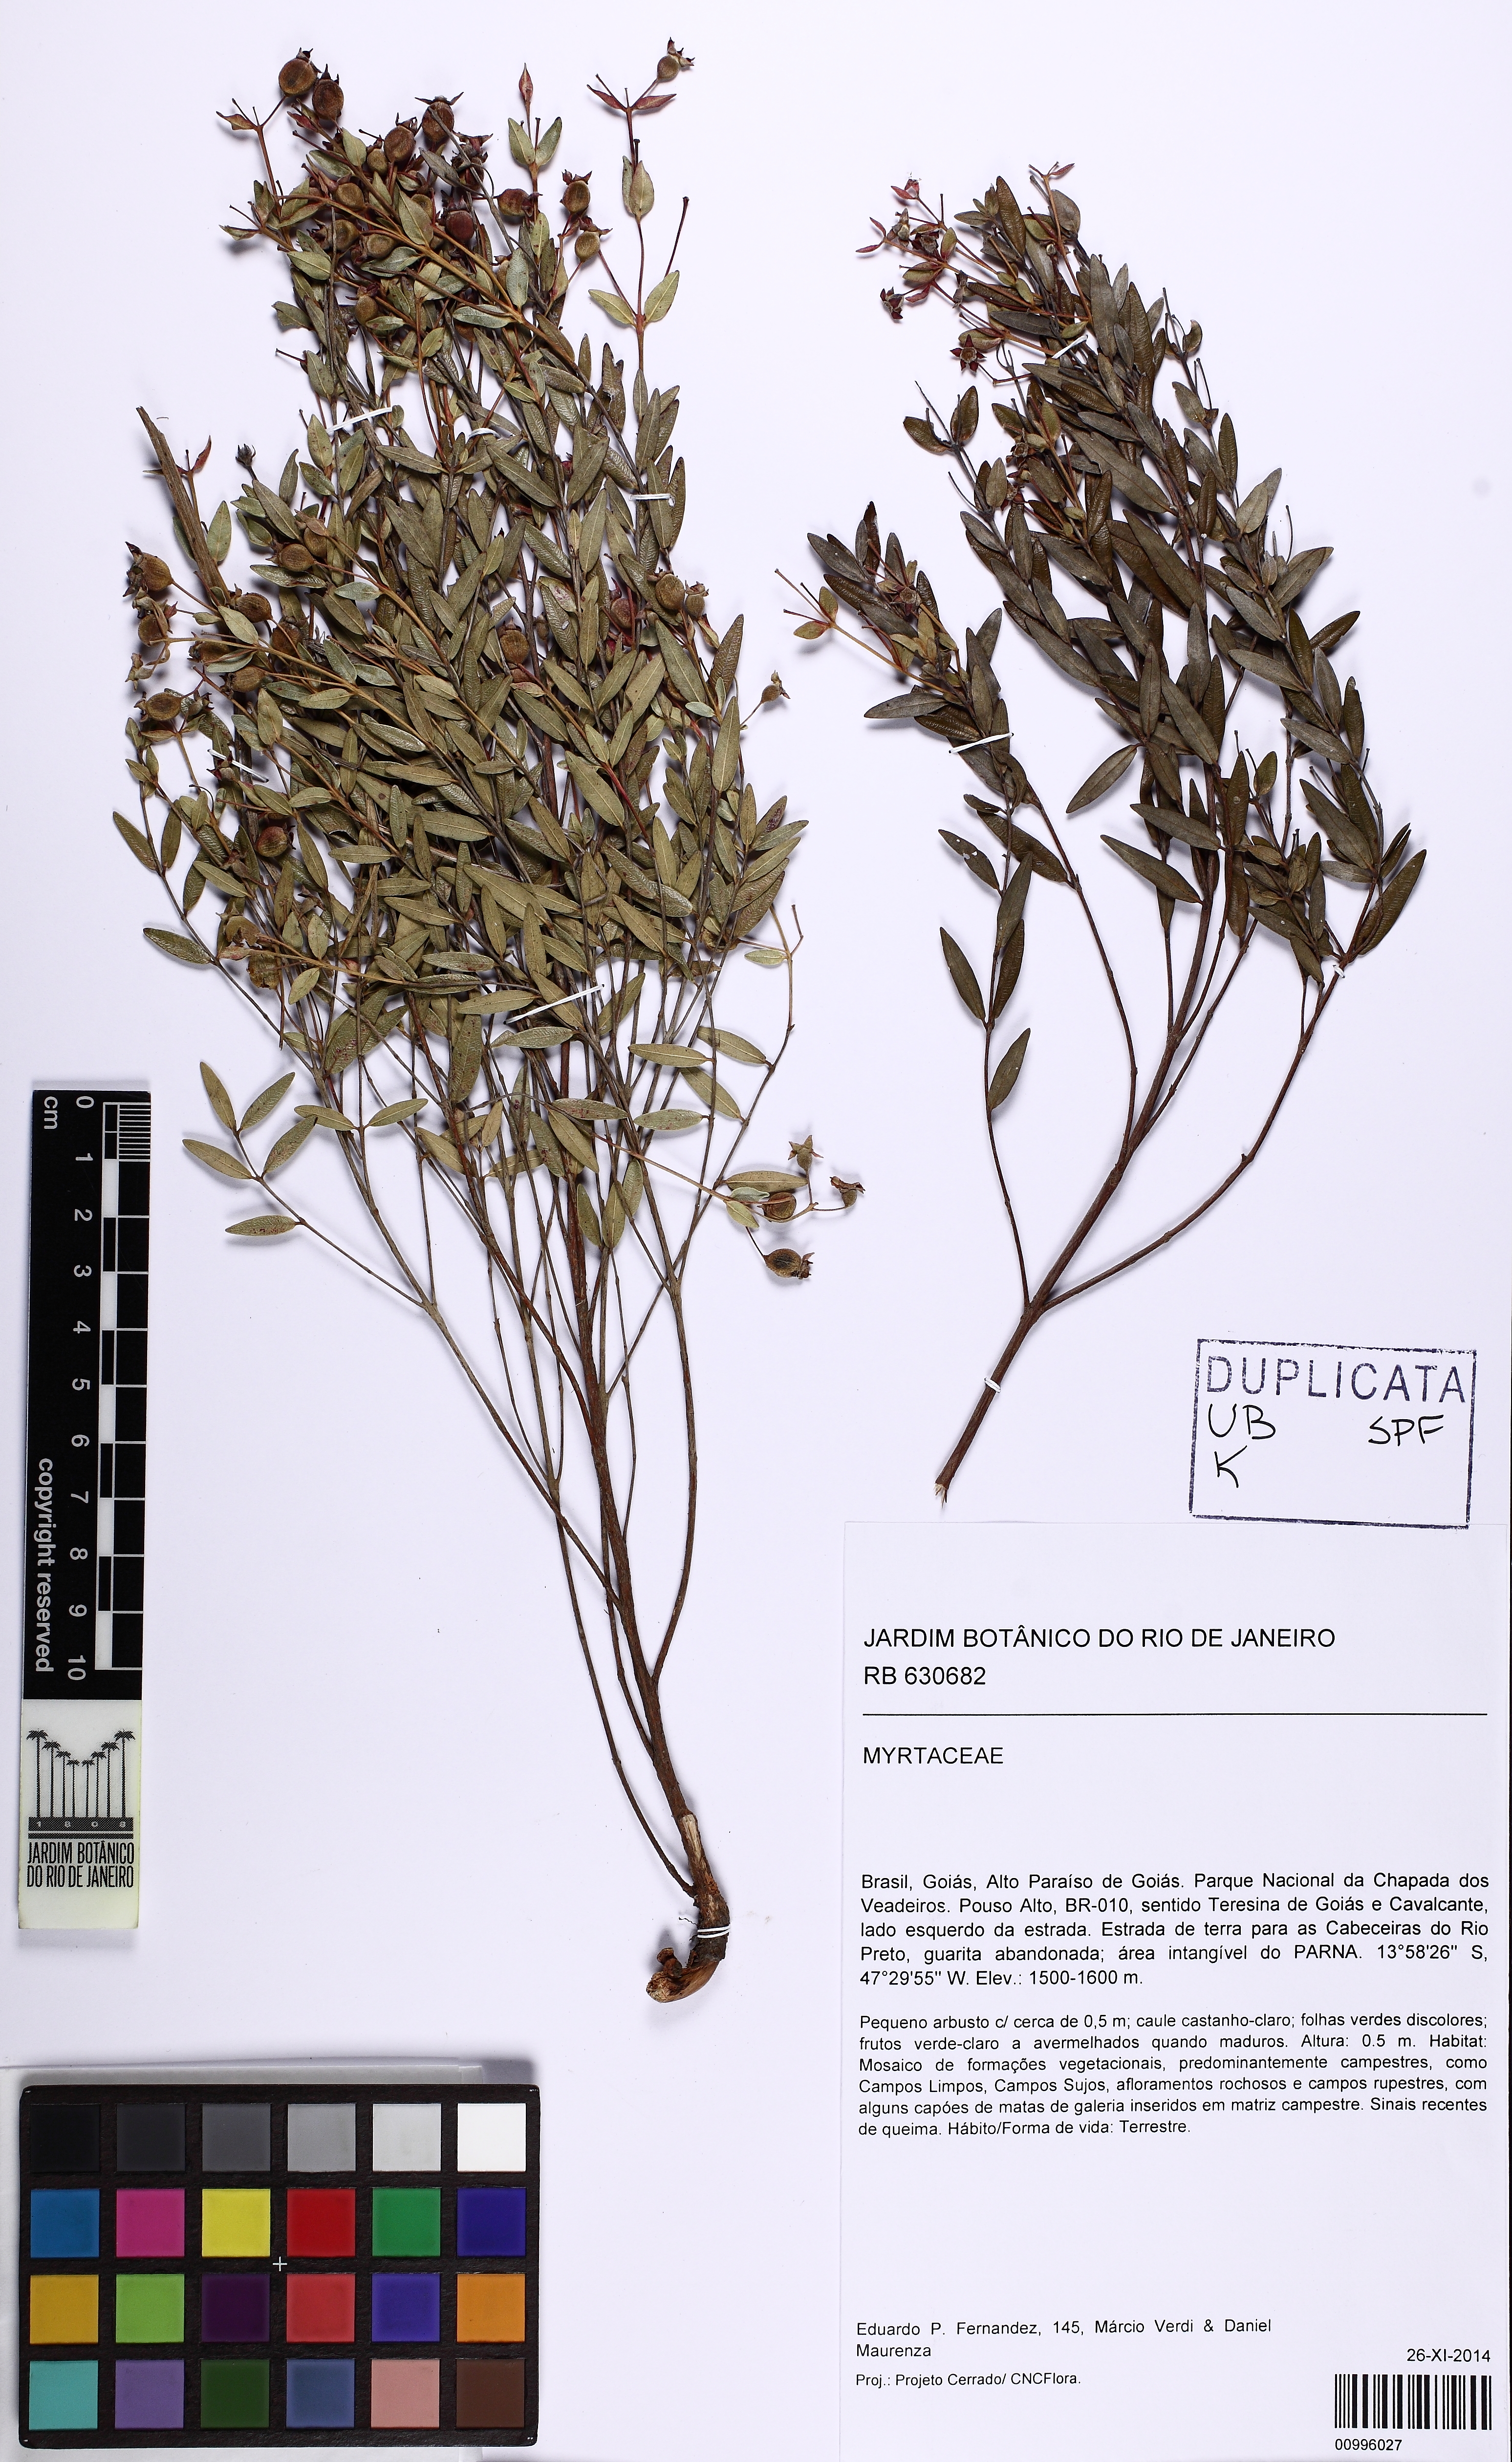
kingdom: Plantae
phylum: Tracheophyta
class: Magnoliopsida
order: Myrtales
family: Myrtaceae
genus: Myrcia
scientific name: Myrcia tocantinensis
